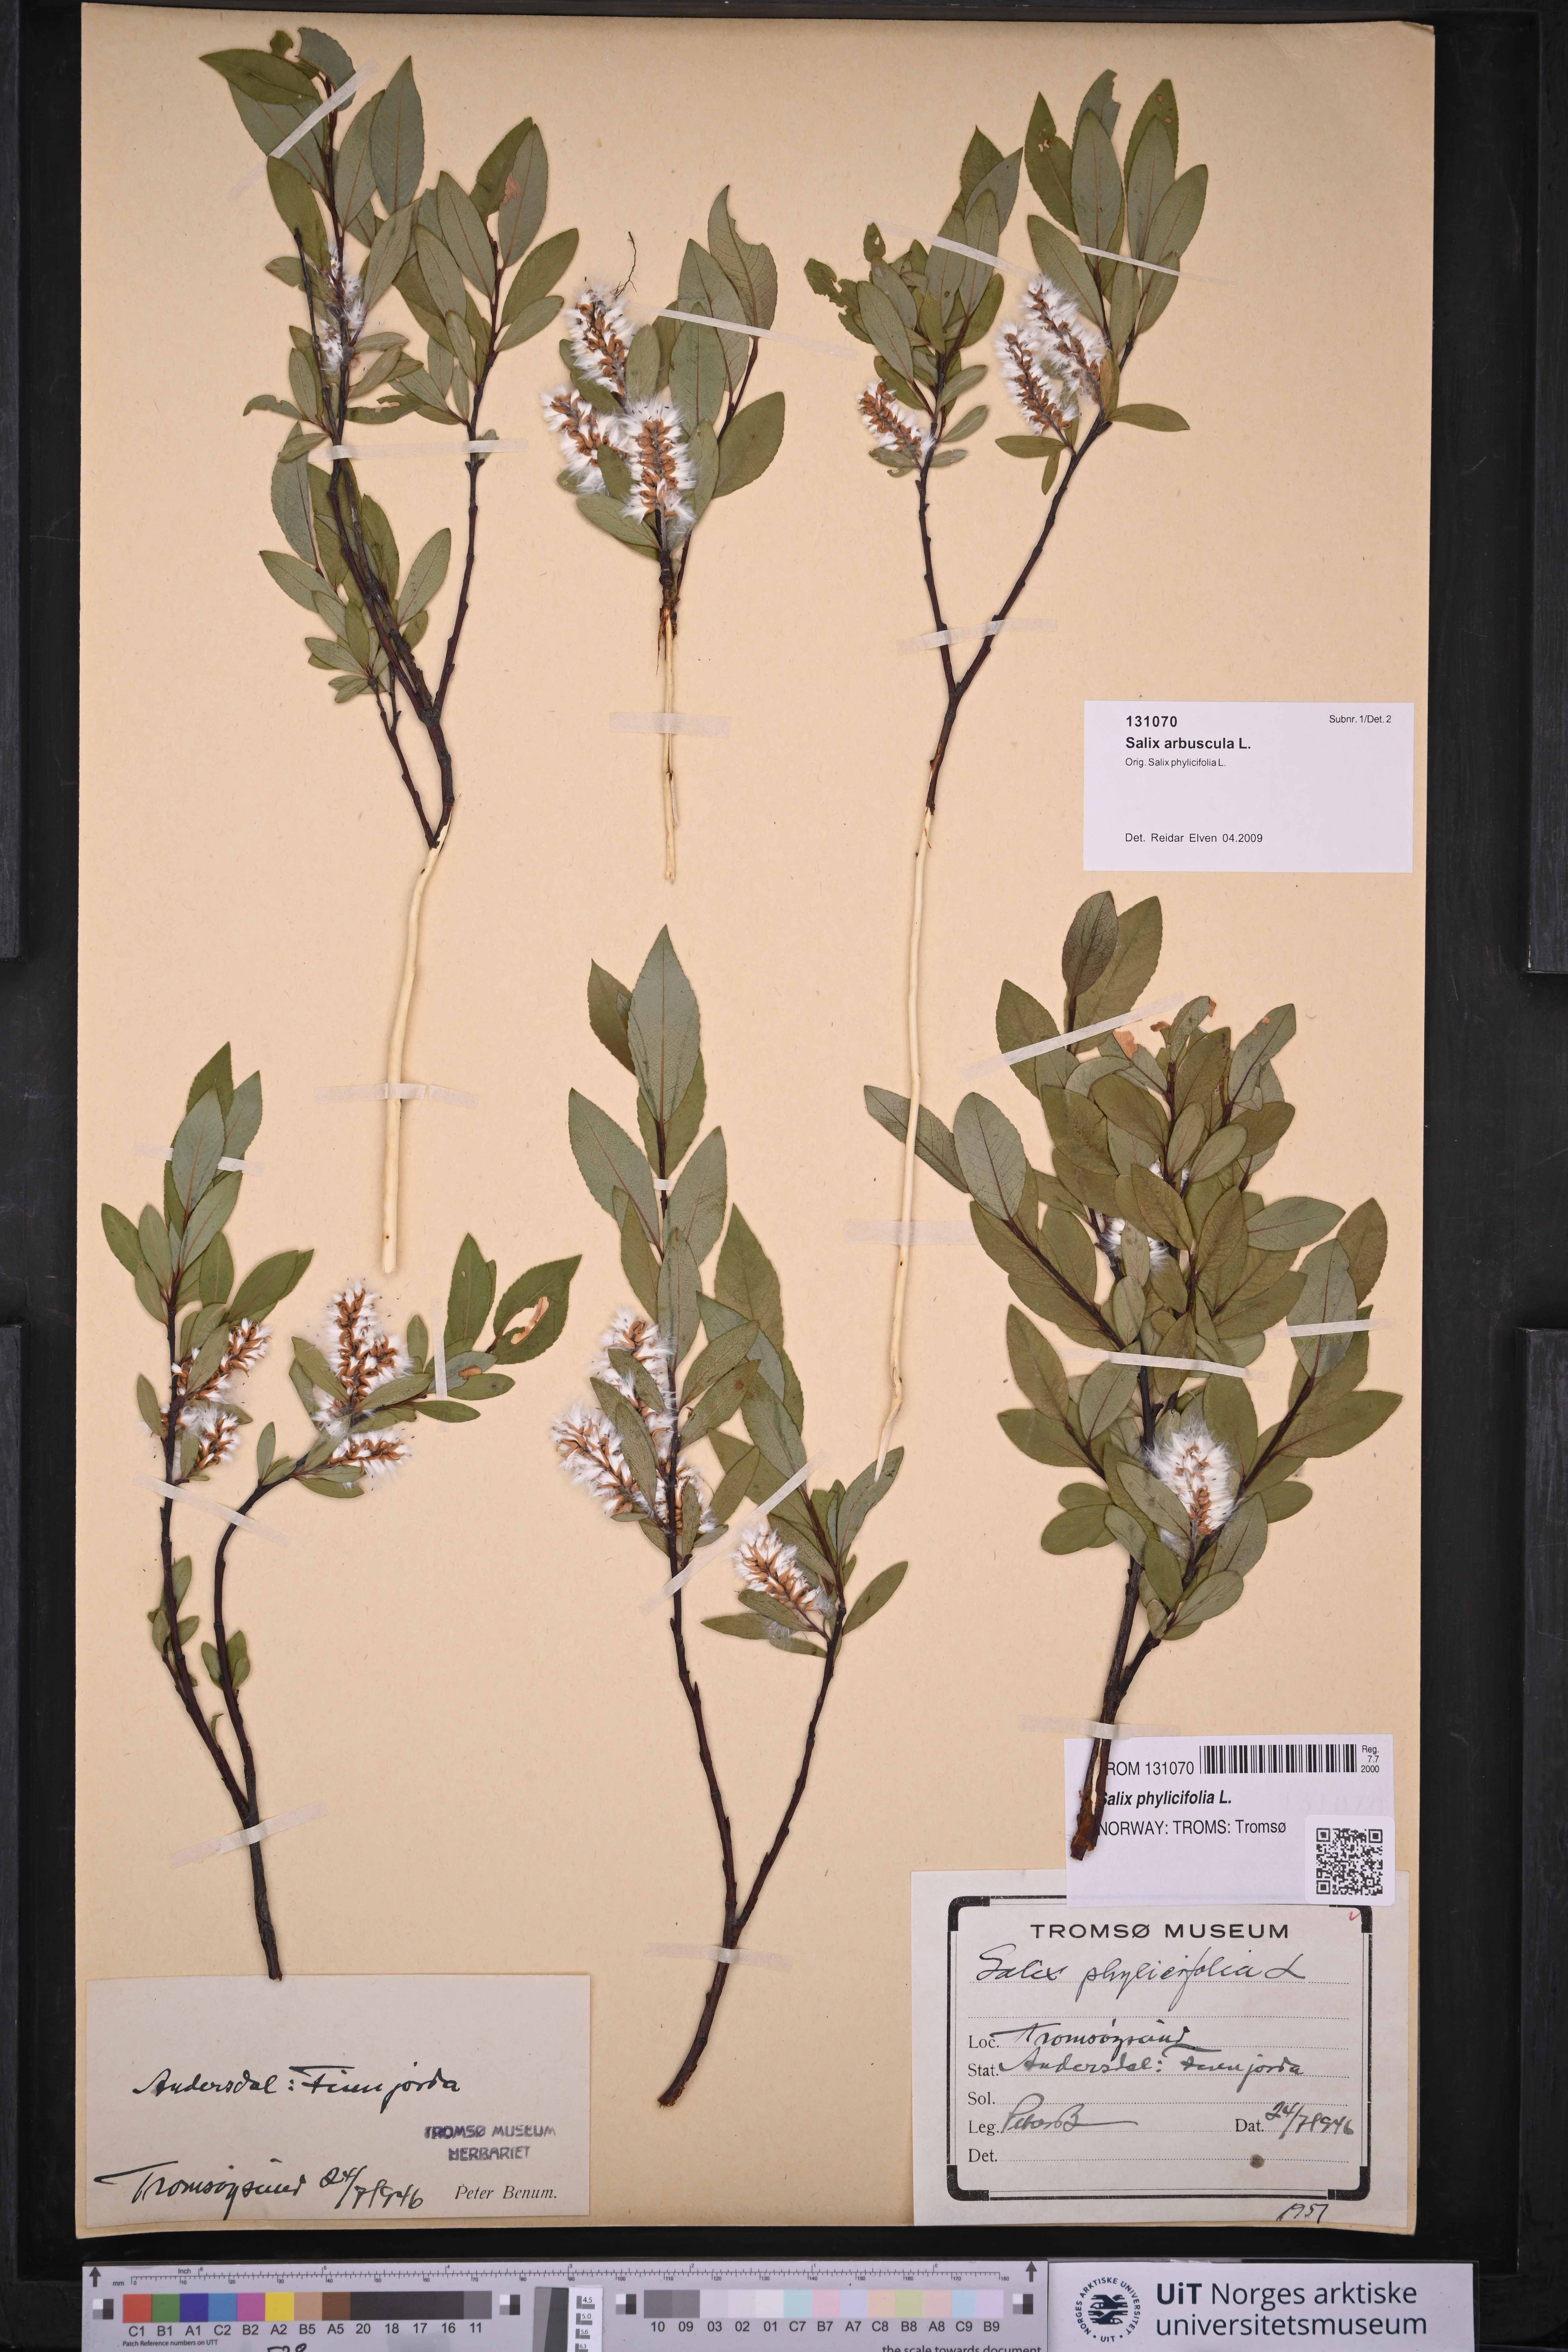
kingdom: Plantae
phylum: Tracheophyta
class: Magnoliopsida
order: Malpighiales
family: Salicaceae
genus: Salix
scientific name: Salix arbuscula
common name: Mountain willow
